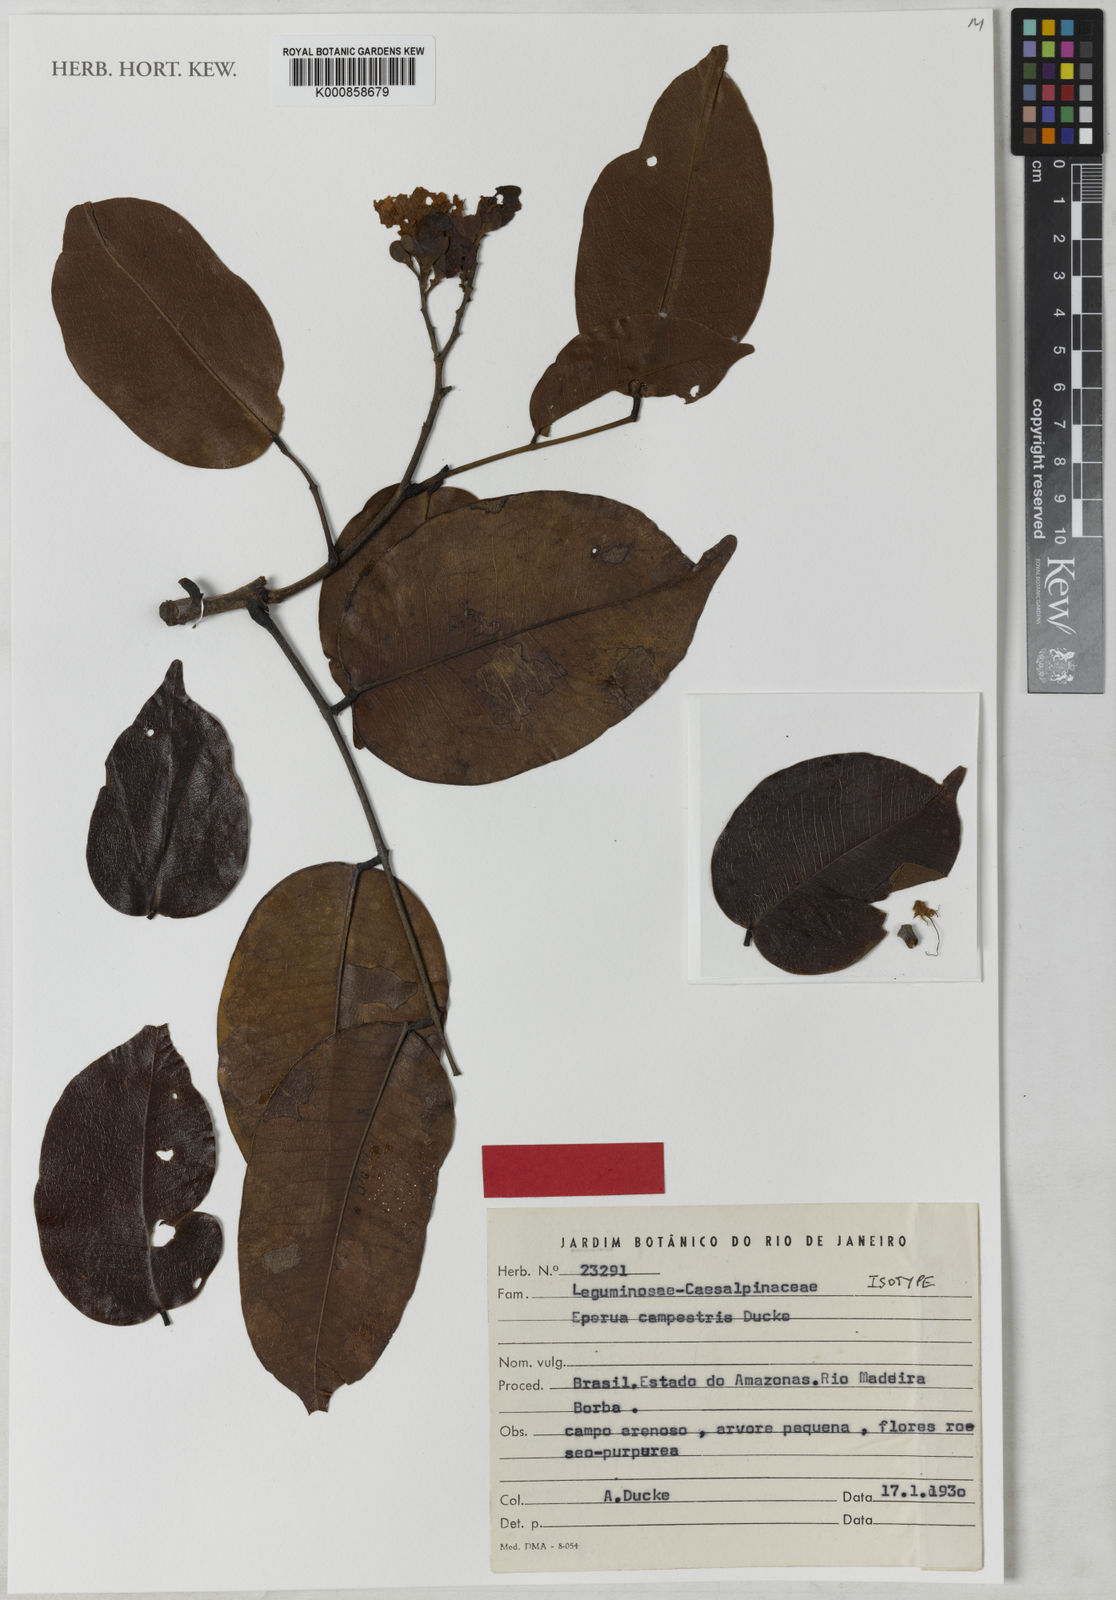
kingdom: Plantae
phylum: Tracheophyta
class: Magnoliopsida
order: Fabales
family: Fabaceae
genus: Eperua
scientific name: Eperua oleifera
